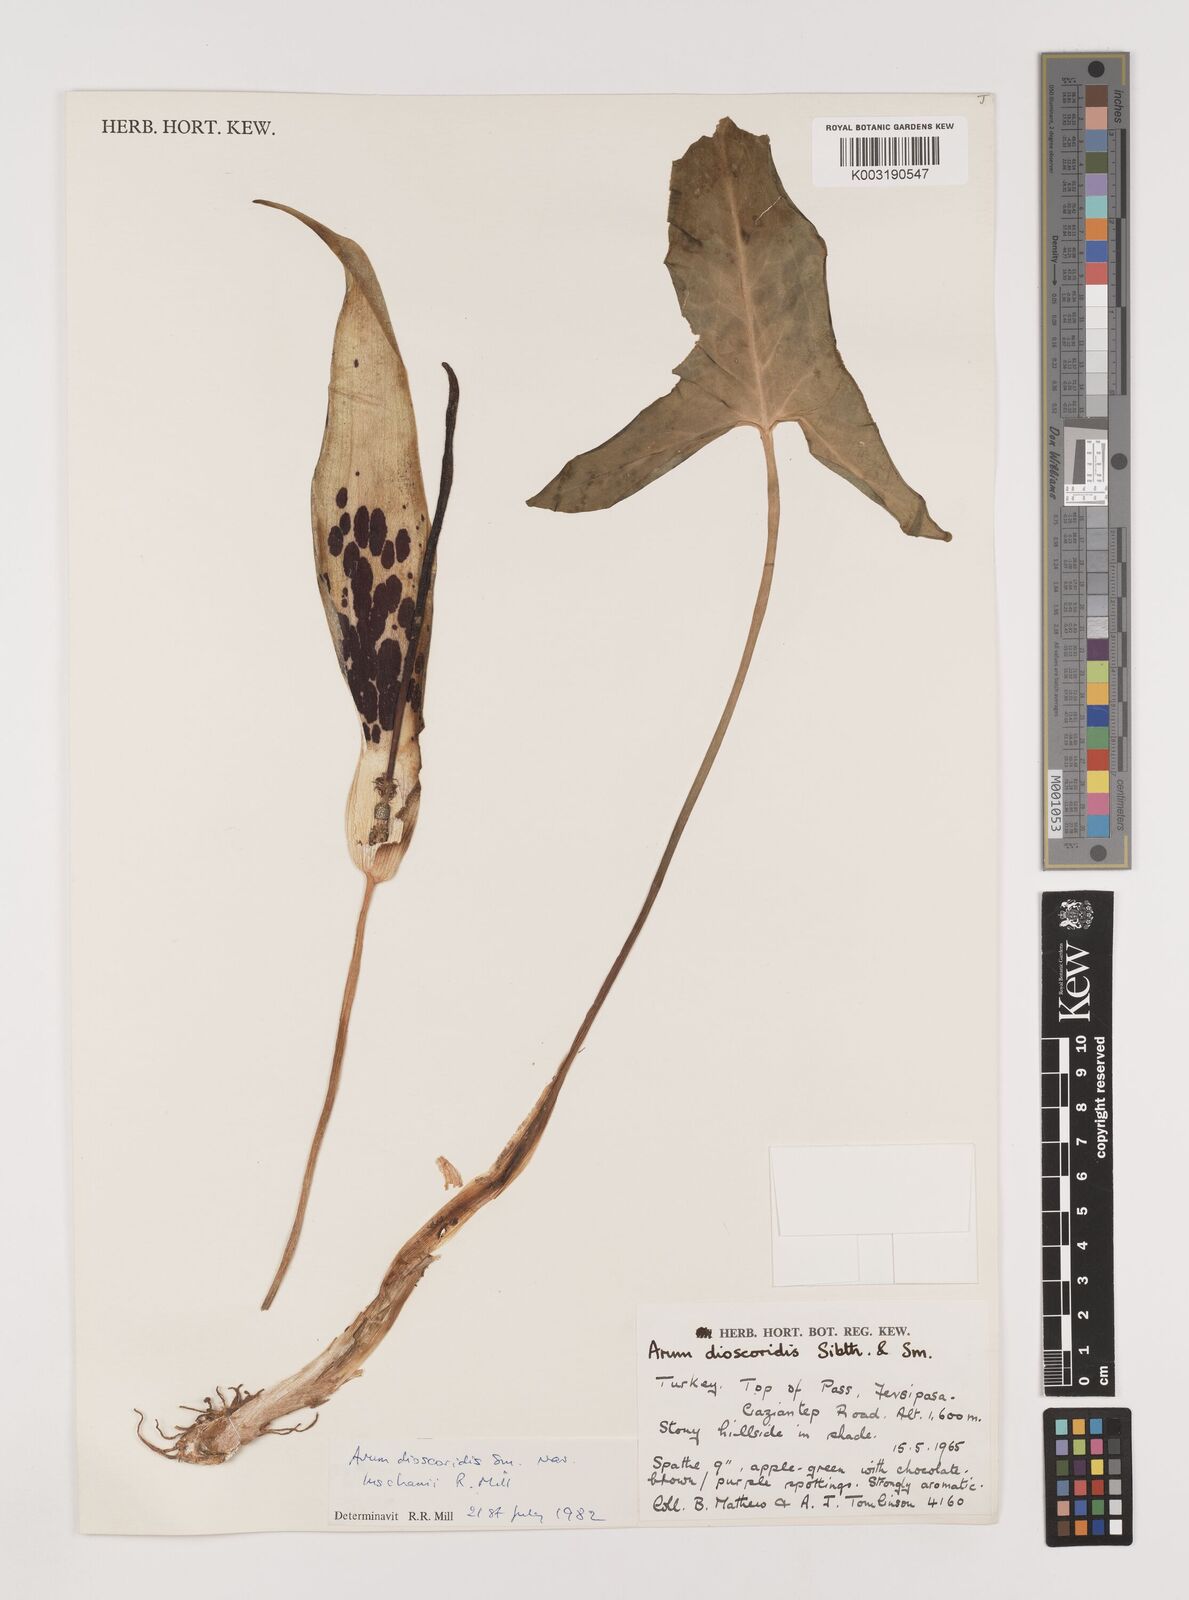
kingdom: Plantae
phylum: Tracheophyta
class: Liliopsida
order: Alismatales
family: Araceae
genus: Arum
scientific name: Arum dioscoridis
